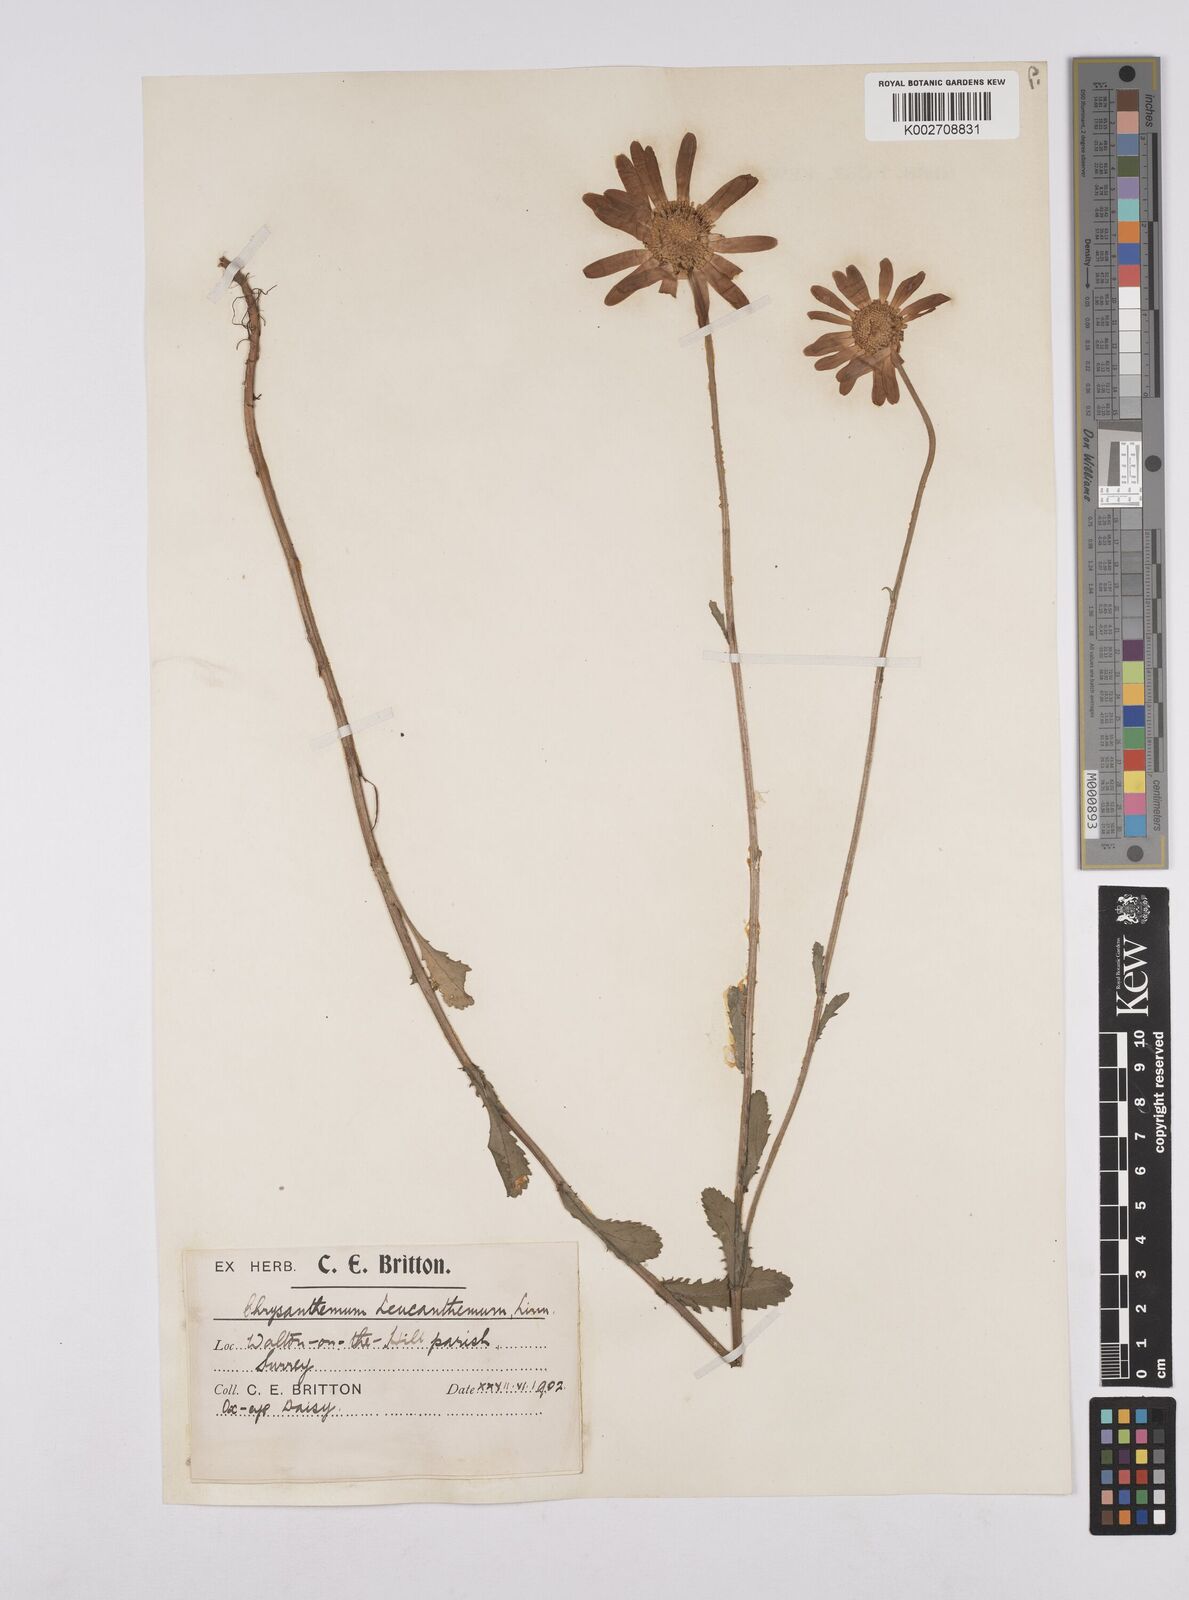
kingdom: Plantae
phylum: Tracheophyta
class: Magnoliopsida
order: Asterales
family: Asteraceae
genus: Leucanthemum
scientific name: Leucanthemum
